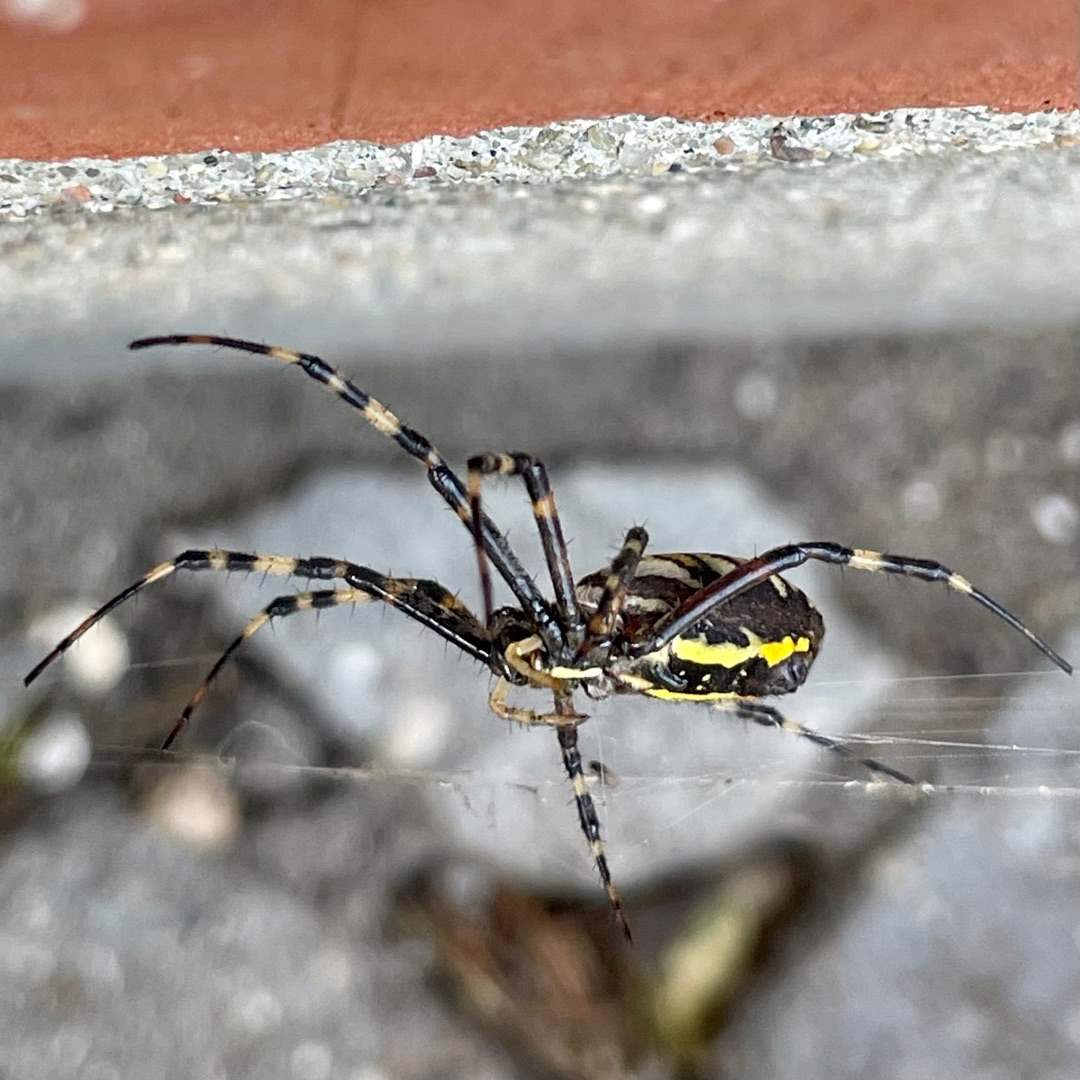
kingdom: Animalia
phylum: Arthropoda
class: Arachnida
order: Araneae
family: Araneidae
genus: Argiope
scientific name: Argiope bruennichi
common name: Hvepseedderkop
